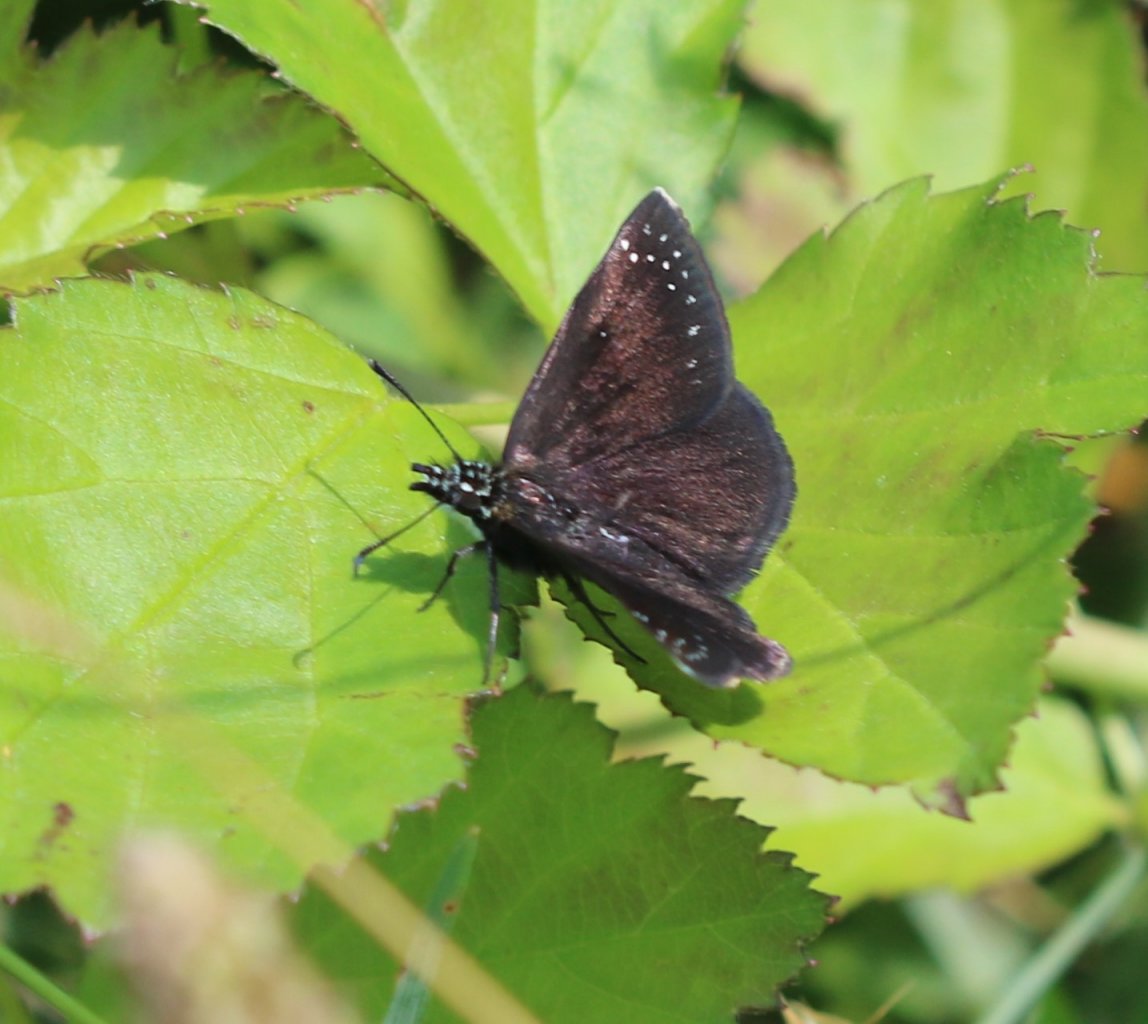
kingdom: Animalia
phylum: Arthropoda
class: Insecta
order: Lepidoptera
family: Hesperiidae
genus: Pholisora
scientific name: Pholisora catullus
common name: Common Sootywing
